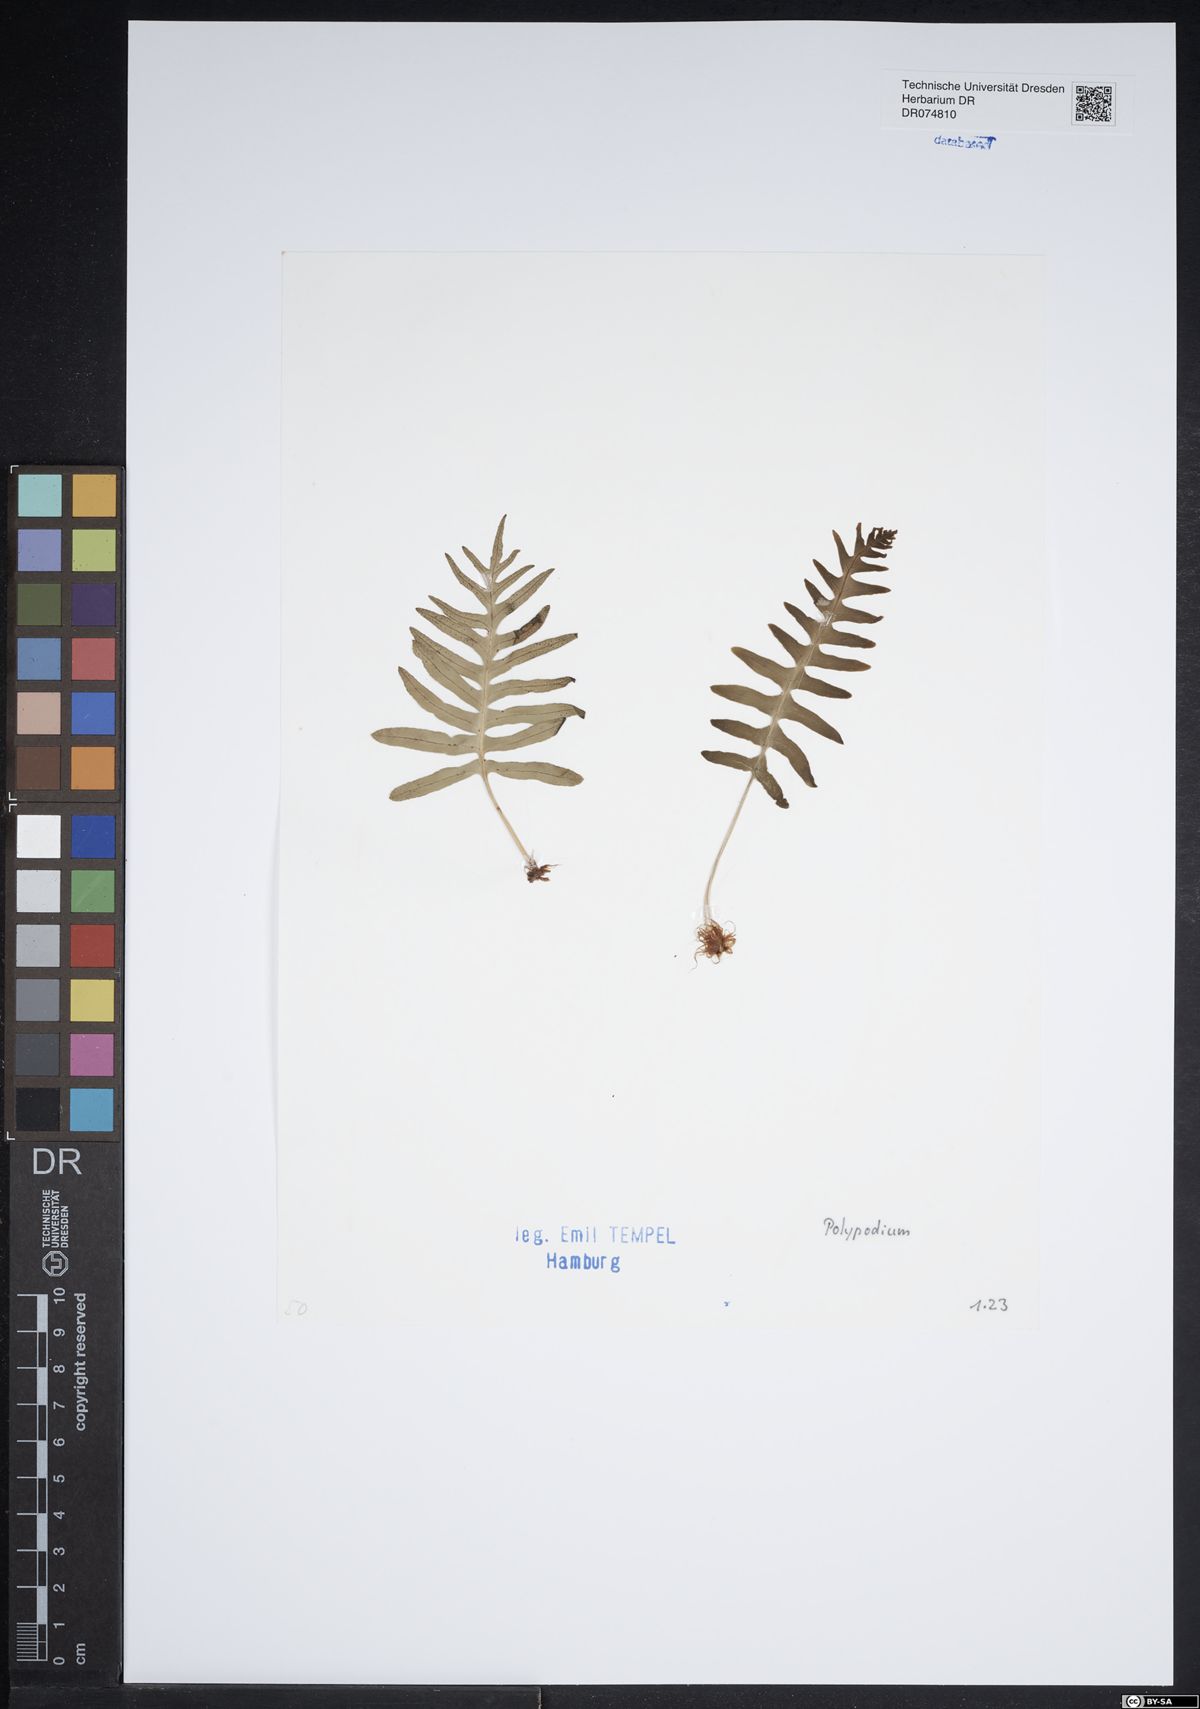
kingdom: Plantae
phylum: Tracheophyta
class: Polypodiopsida
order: Polypodiales
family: Polypodiaceae
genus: Polypodium
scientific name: Polypodium
